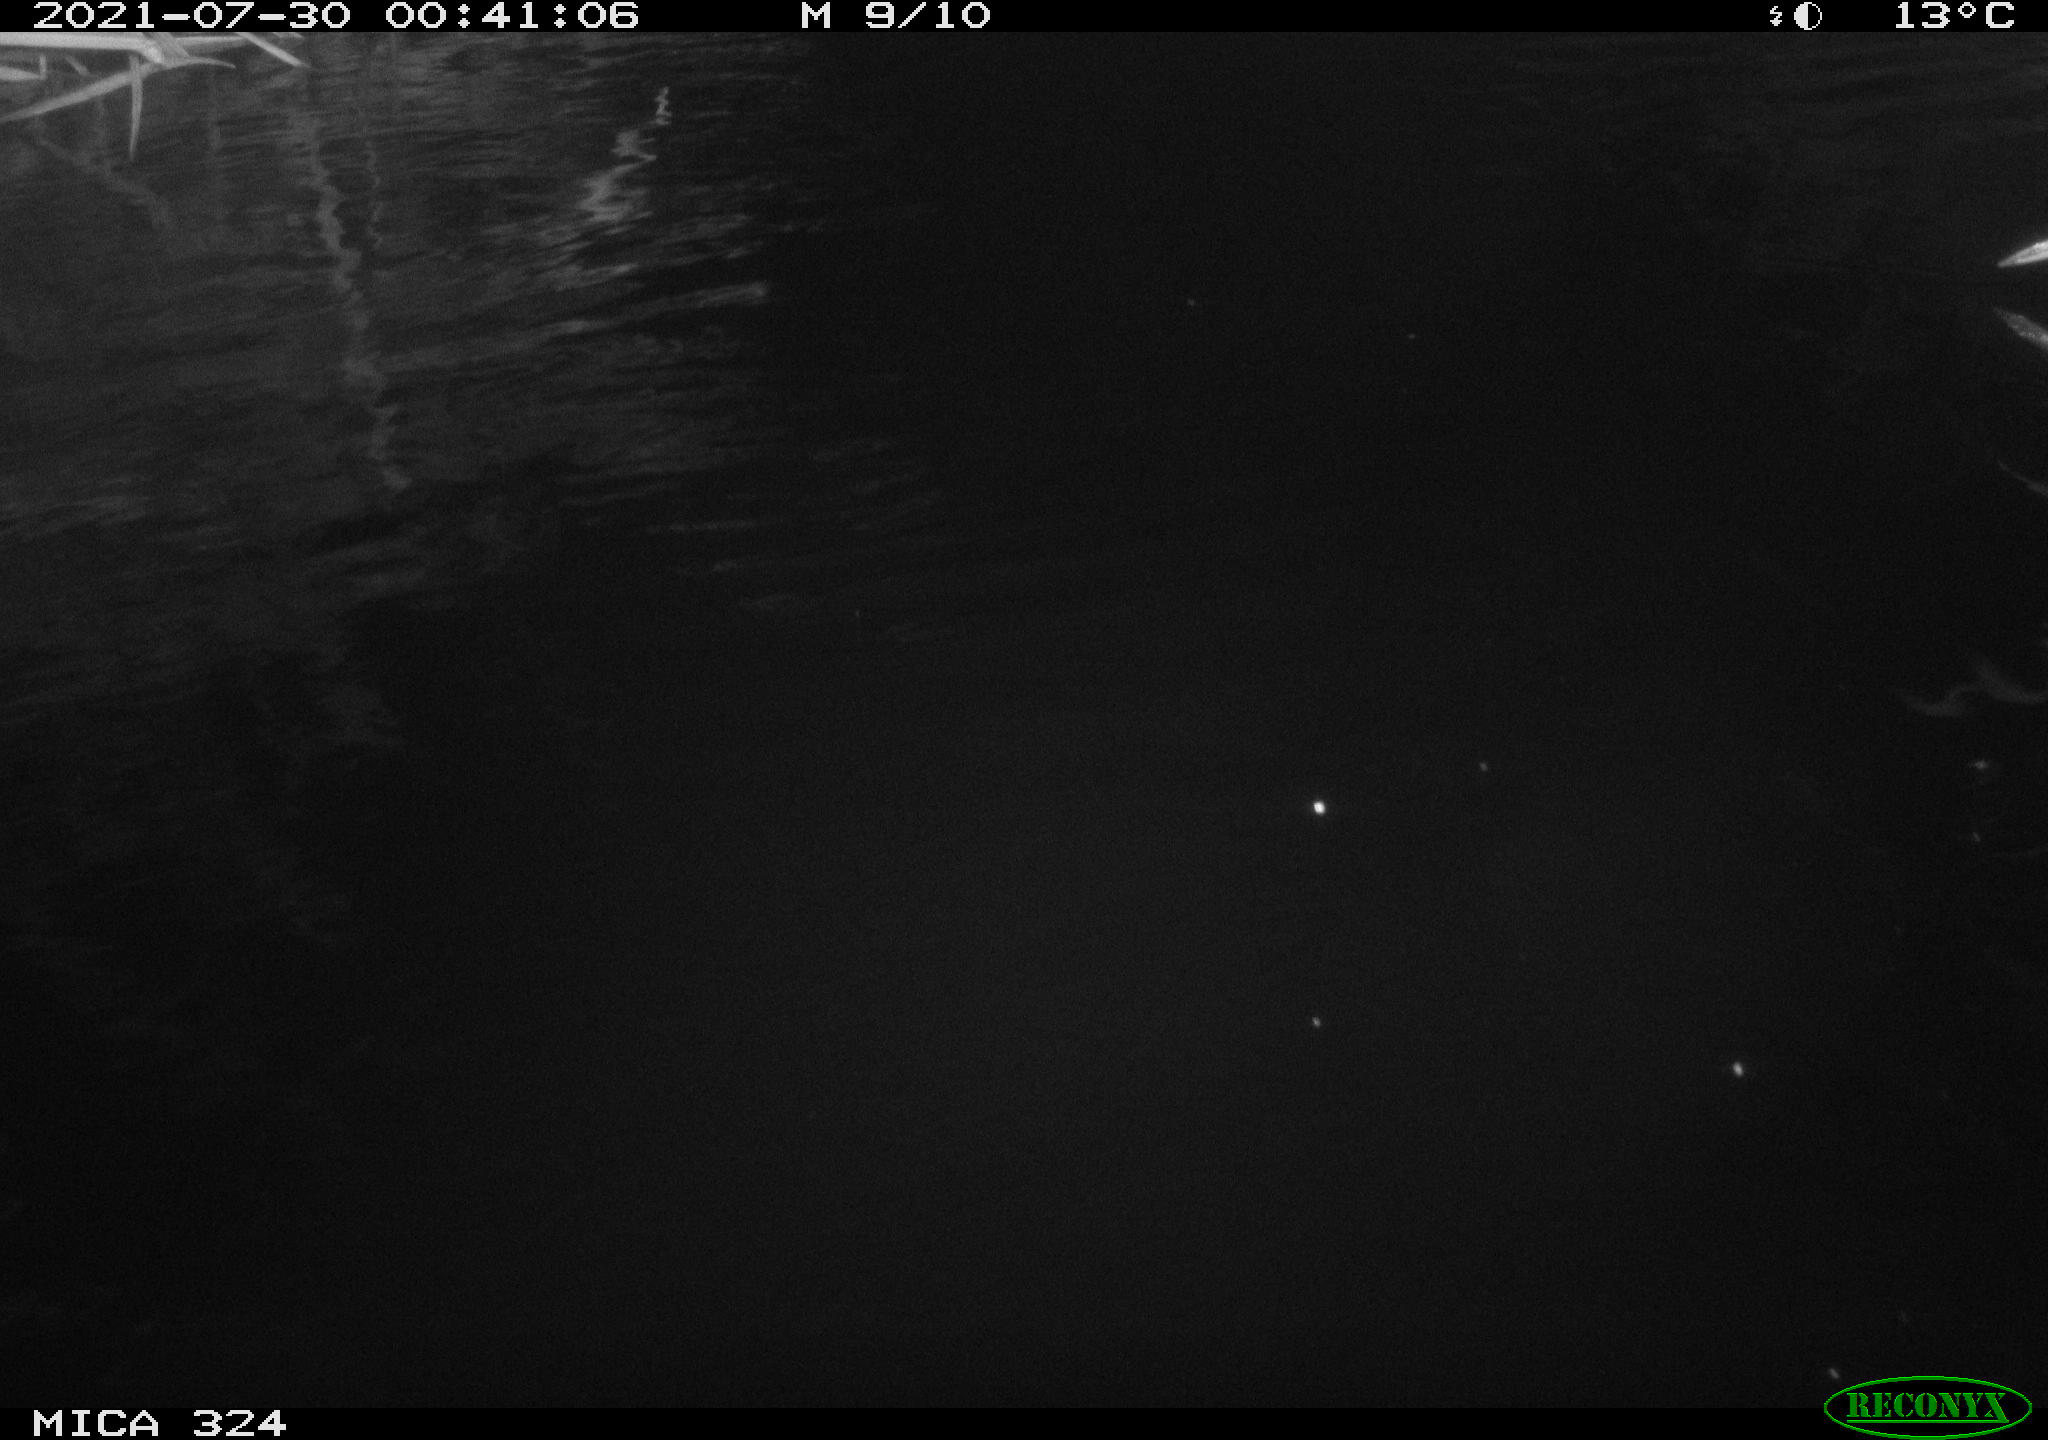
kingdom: Animalia
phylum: Chordata
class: Mammalia
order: Rodentia
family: Cricetidae
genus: Ondatra
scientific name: Ondatra zibethicus
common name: Muskrat
